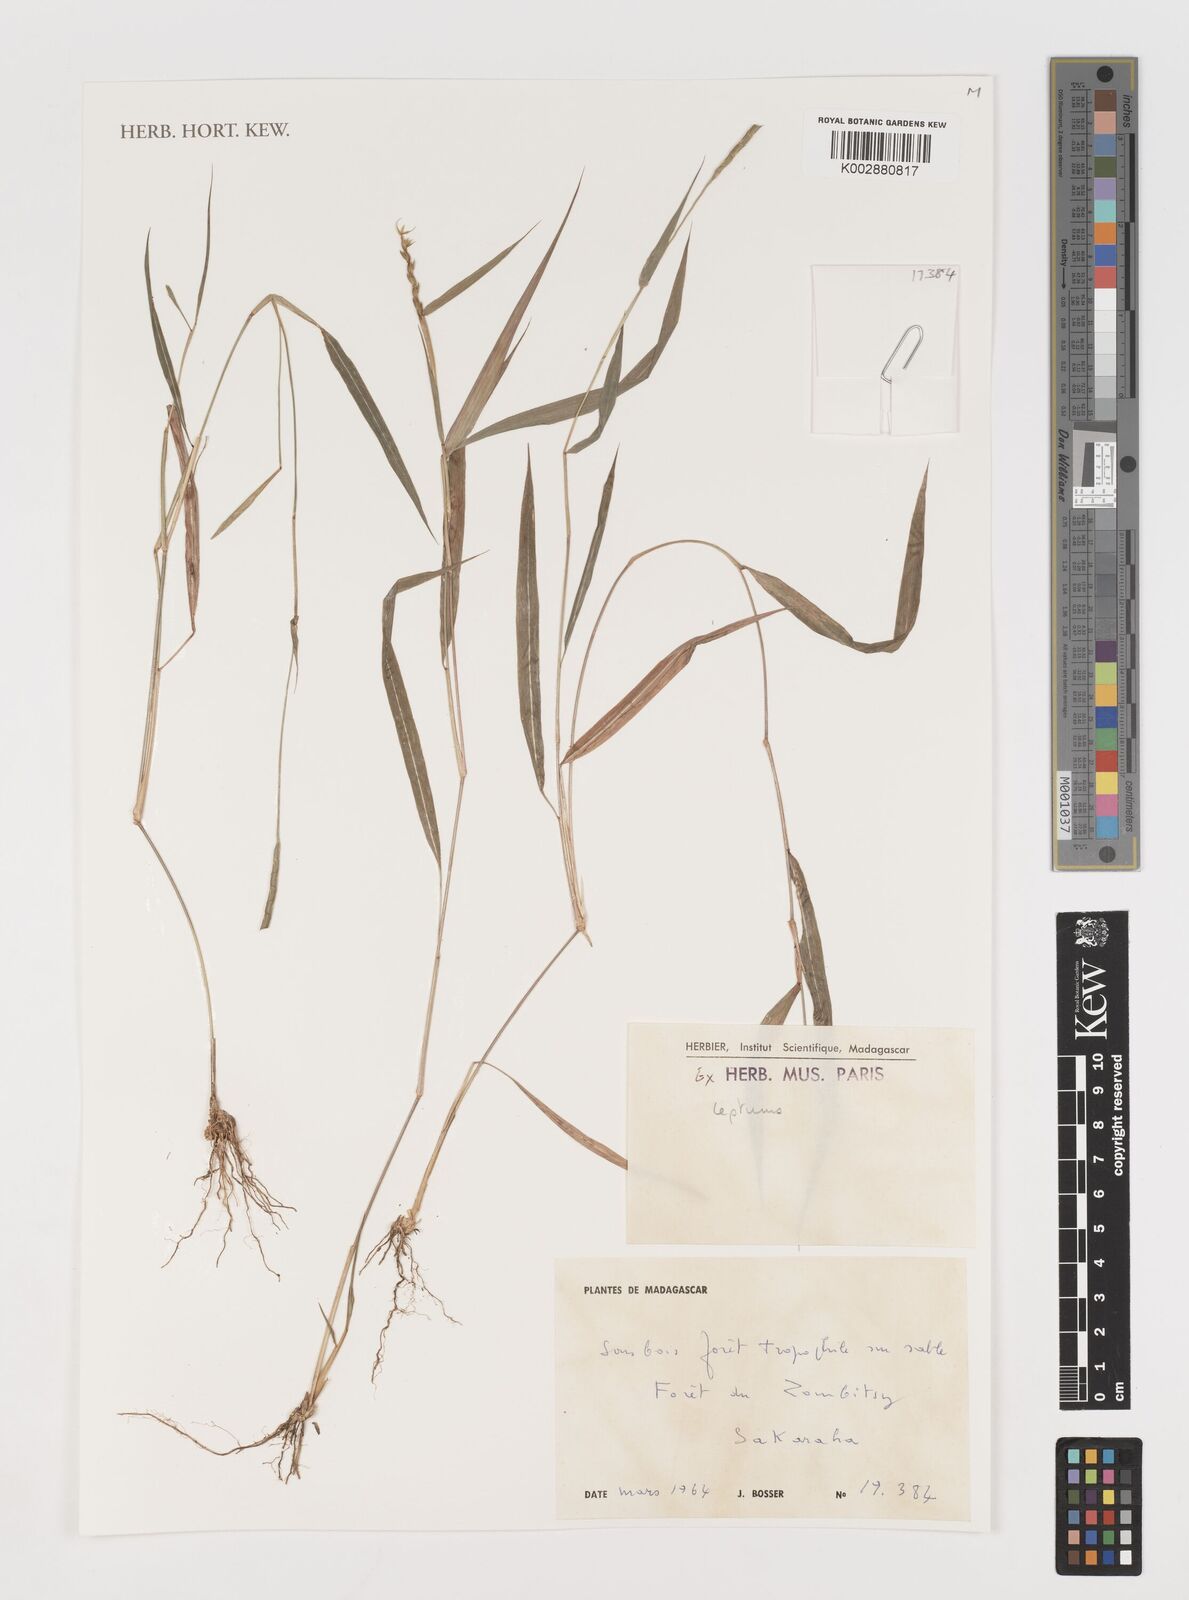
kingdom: Plantae
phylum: Tracheophyta
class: Liliopsida
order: Poales
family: Poaceae
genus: Lepturus
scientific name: Lepturus
